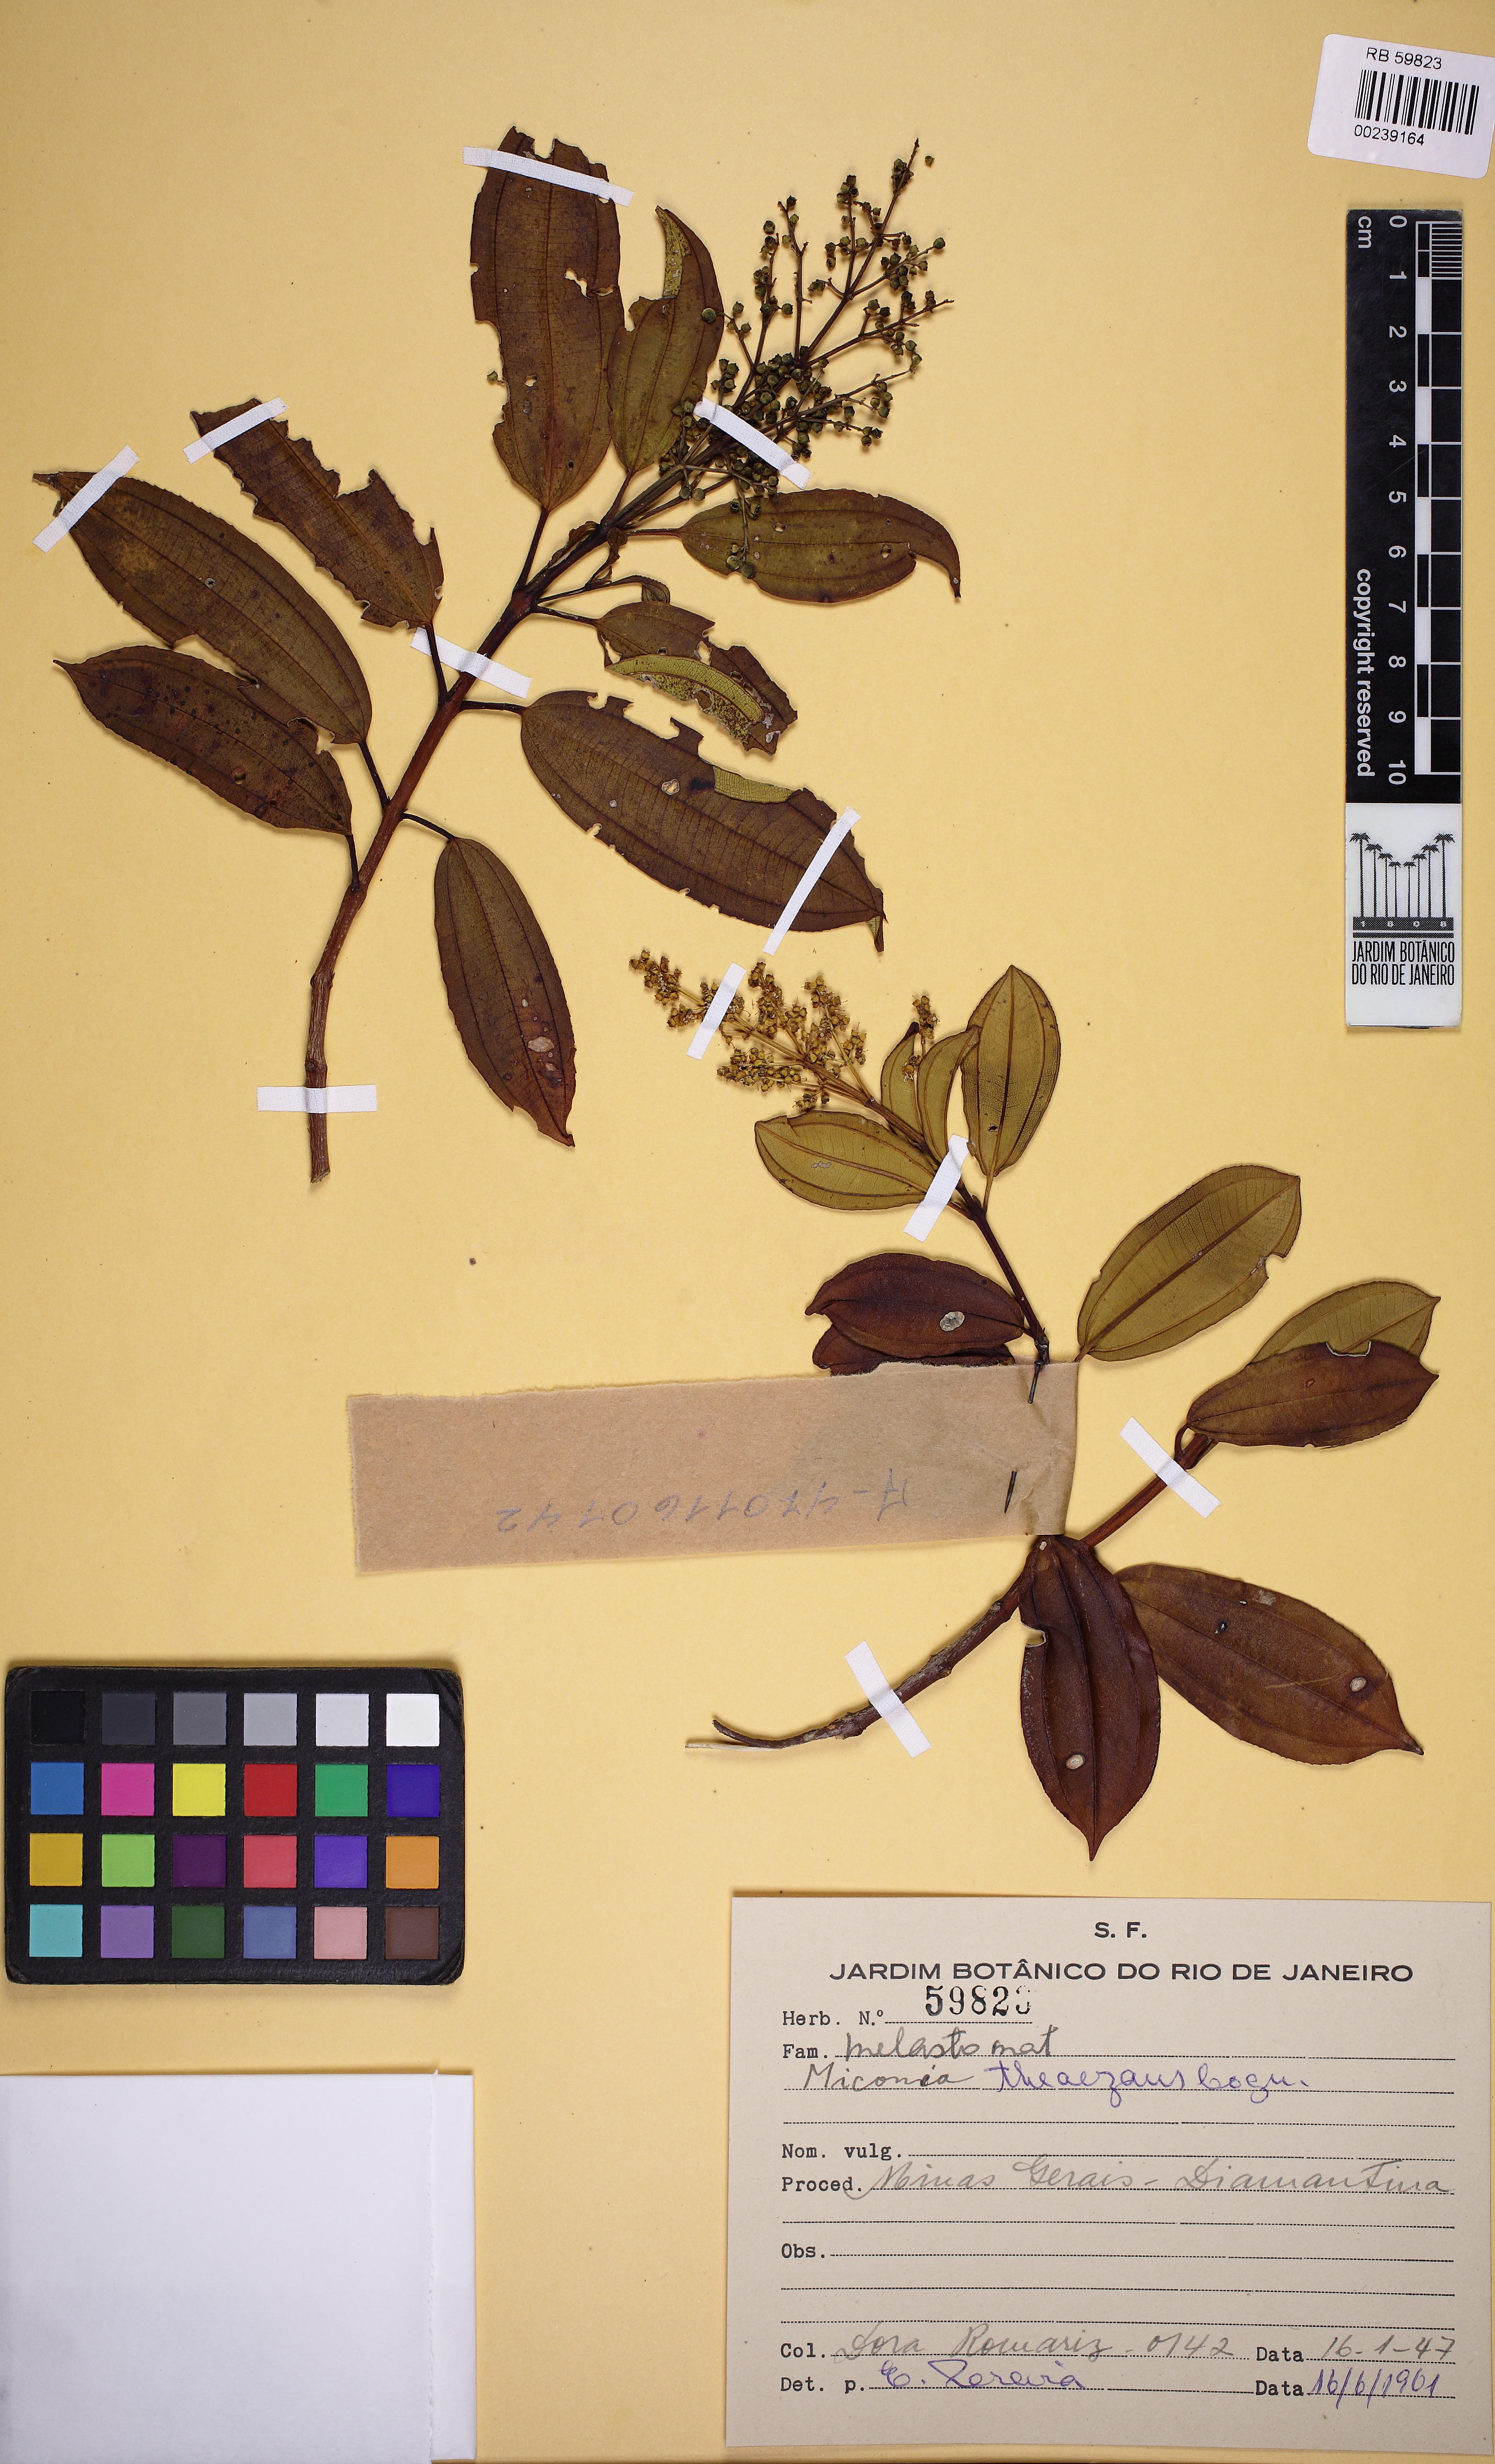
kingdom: Plantae
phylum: Tracheophyta
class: Magnoliopsida
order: Myrtales
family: Melastomataceae
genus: Miconia
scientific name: Miconia theizans
